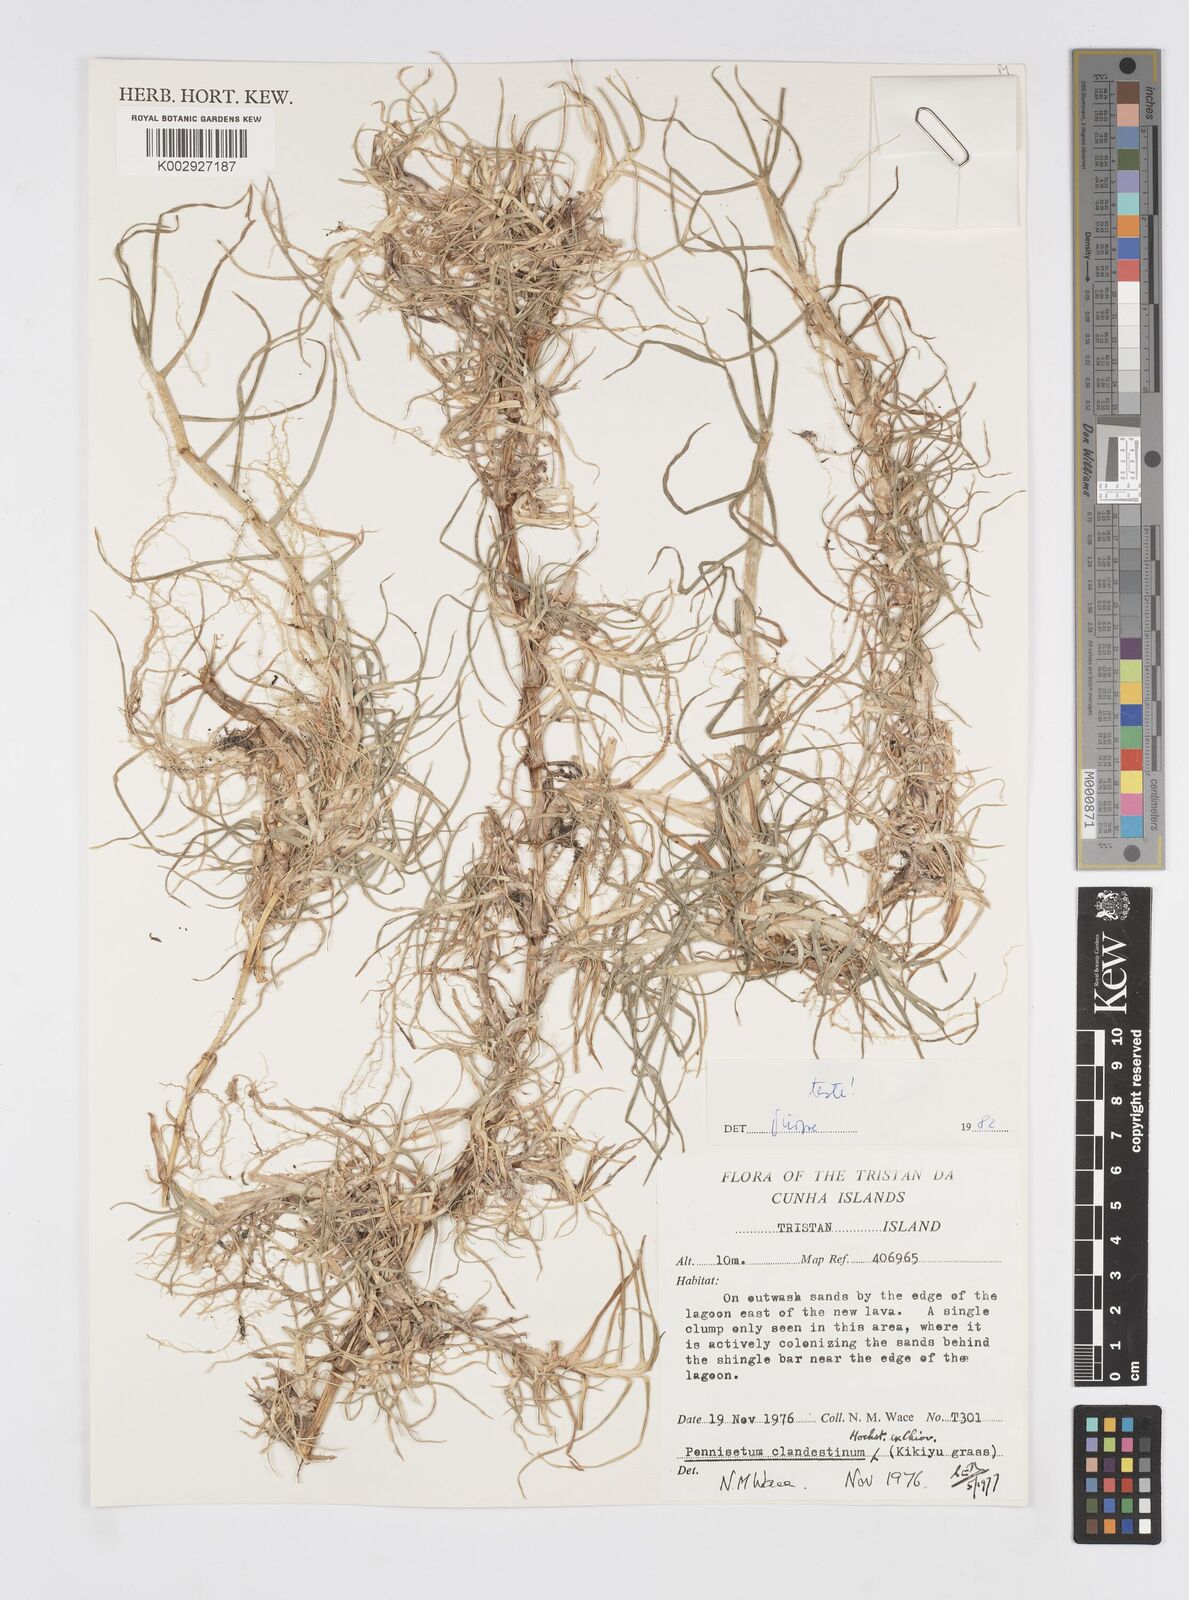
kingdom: Plantae
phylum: Tracheophyta
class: Liliopsida
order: Poales
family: Poaceae
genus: Cenchrus
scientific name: Cenchrus clandestinus
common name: Kikuyugrass
